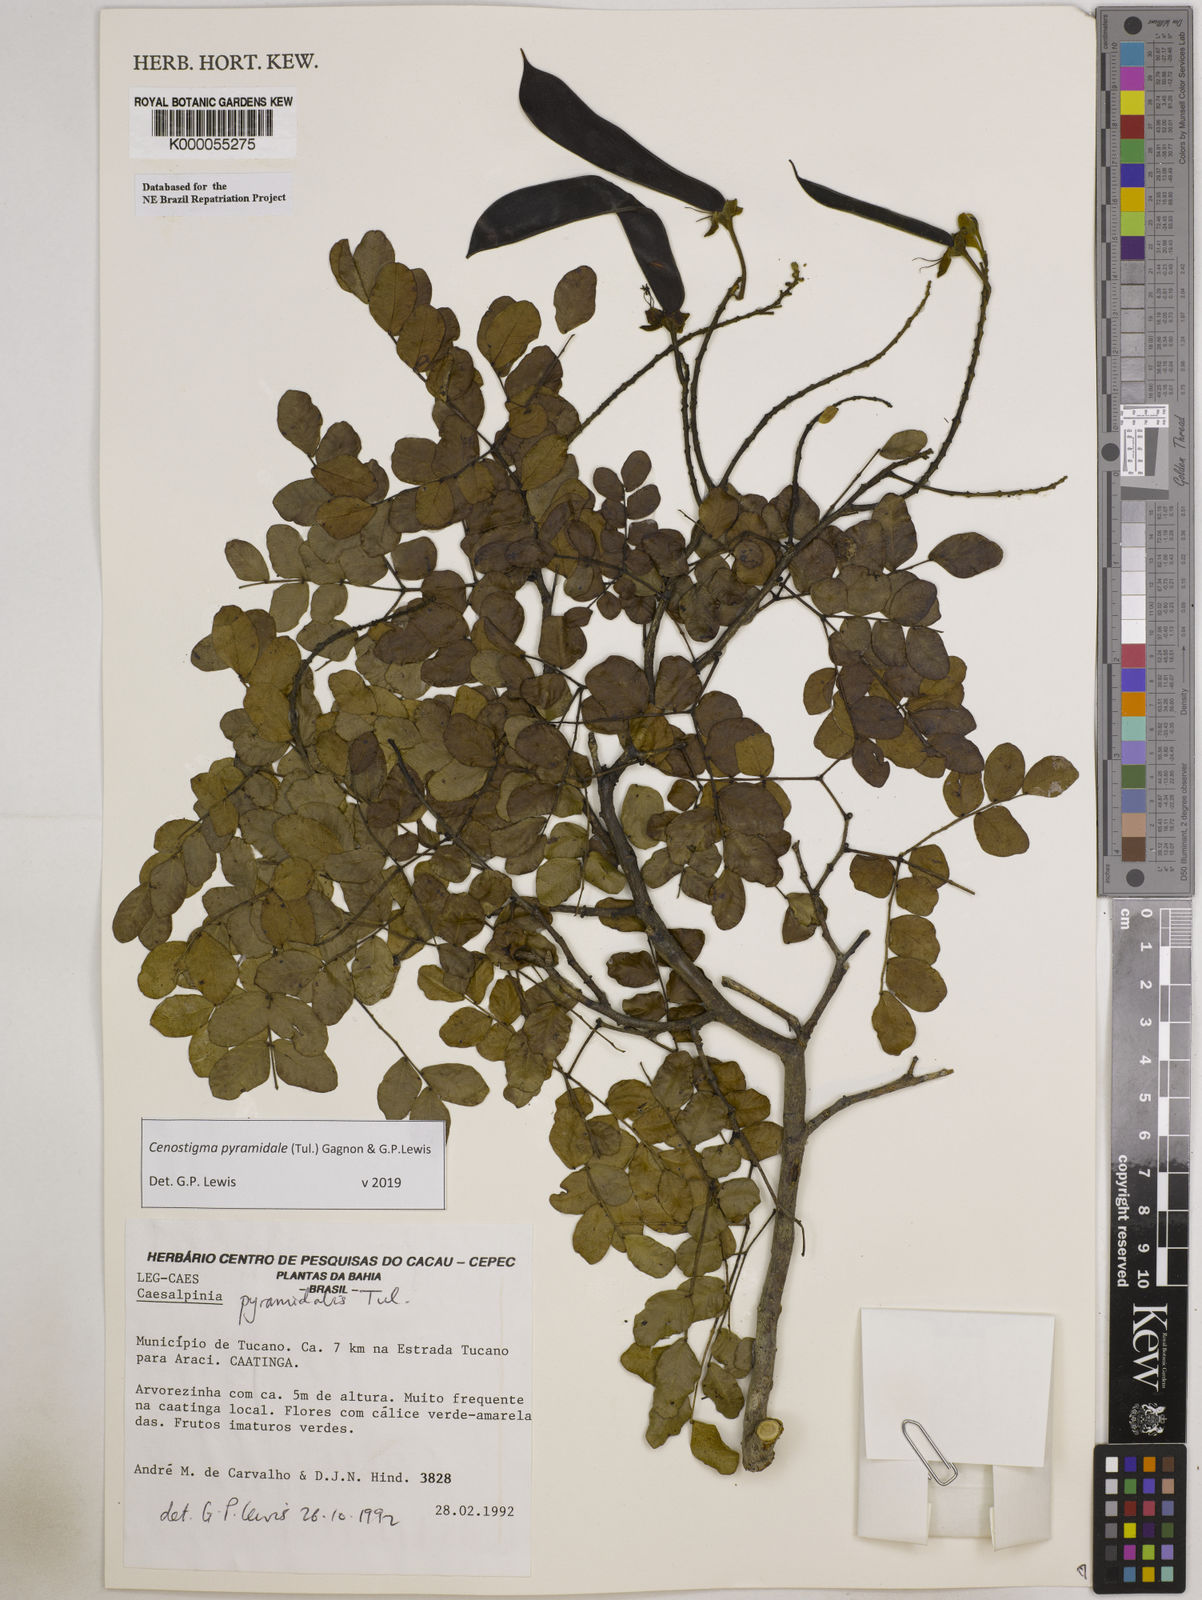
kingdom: Plantae
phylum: Tracheophyta
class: Magnoliopsida
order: Fabales
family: Fabaceae
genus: Cenostigma
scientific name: Cenostigma pyramidale
